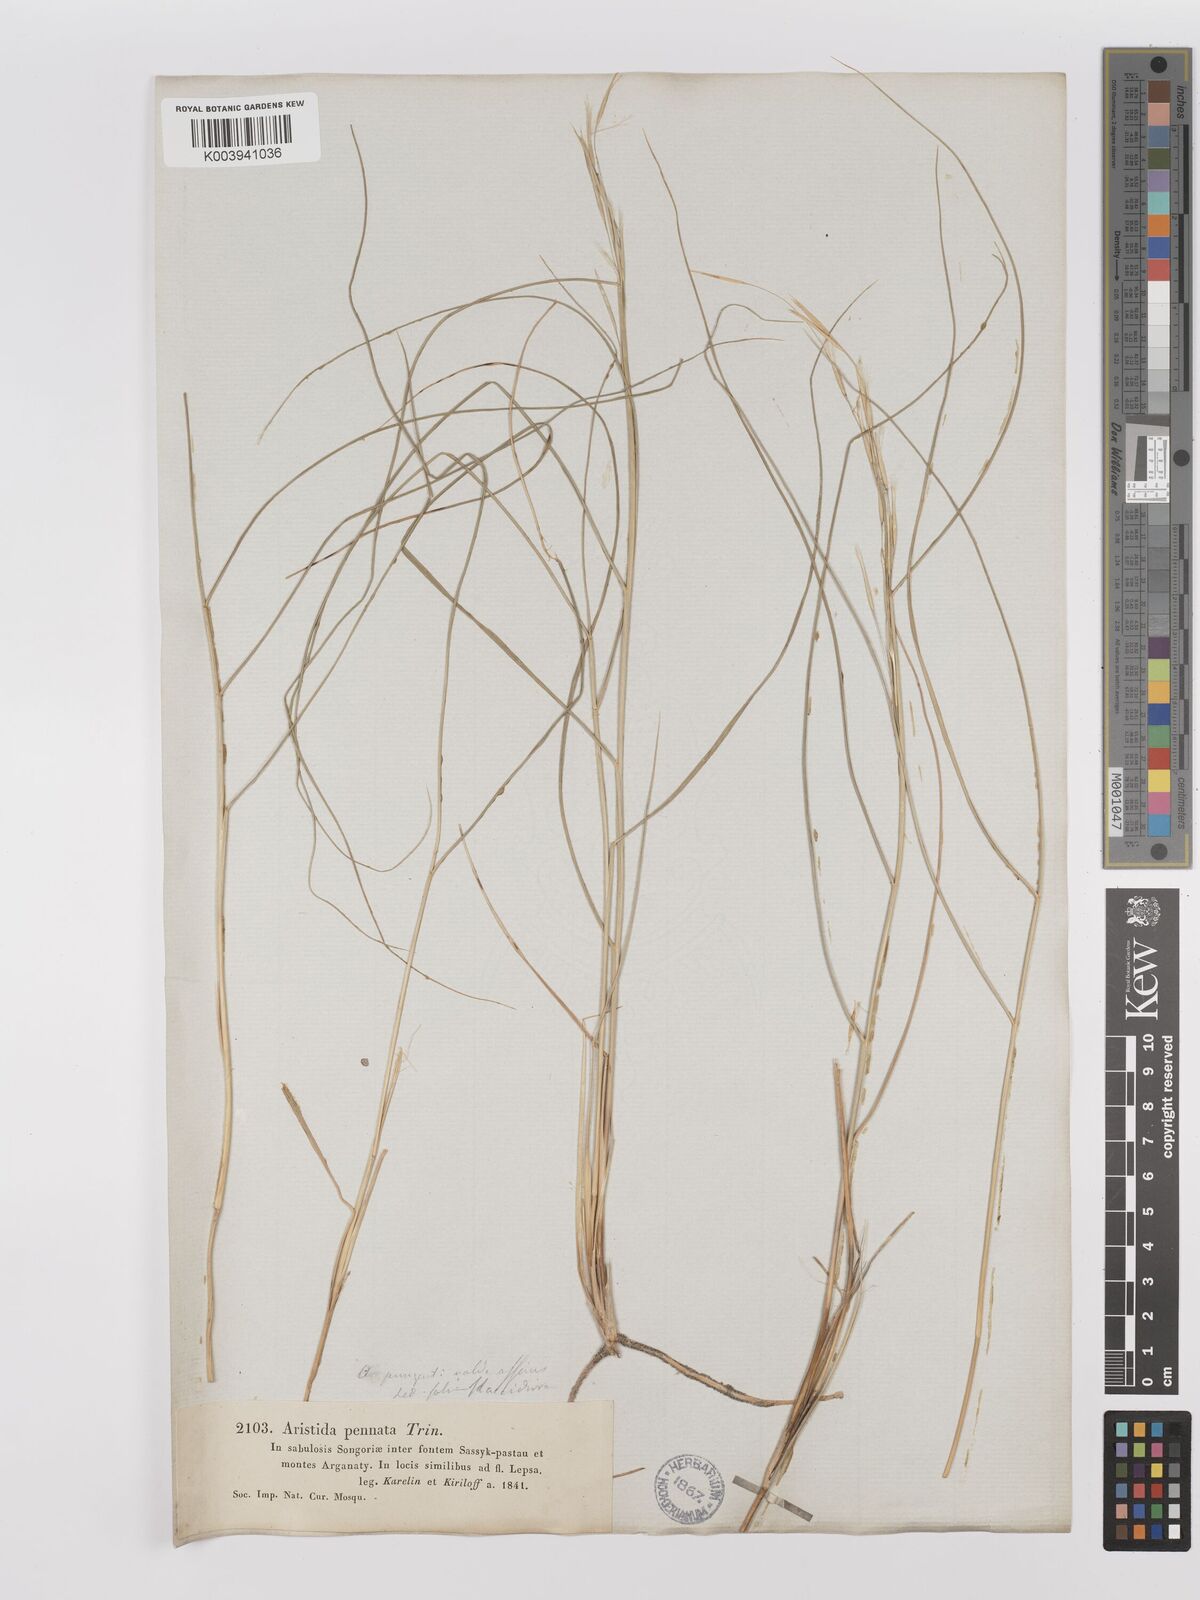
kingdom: Plantae
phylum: Tracheophyta
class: Liliopsida
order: Poales
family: Poaceae
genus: Stipagrostis
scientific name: Stipagrostis pungens
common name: Three-awn grass
